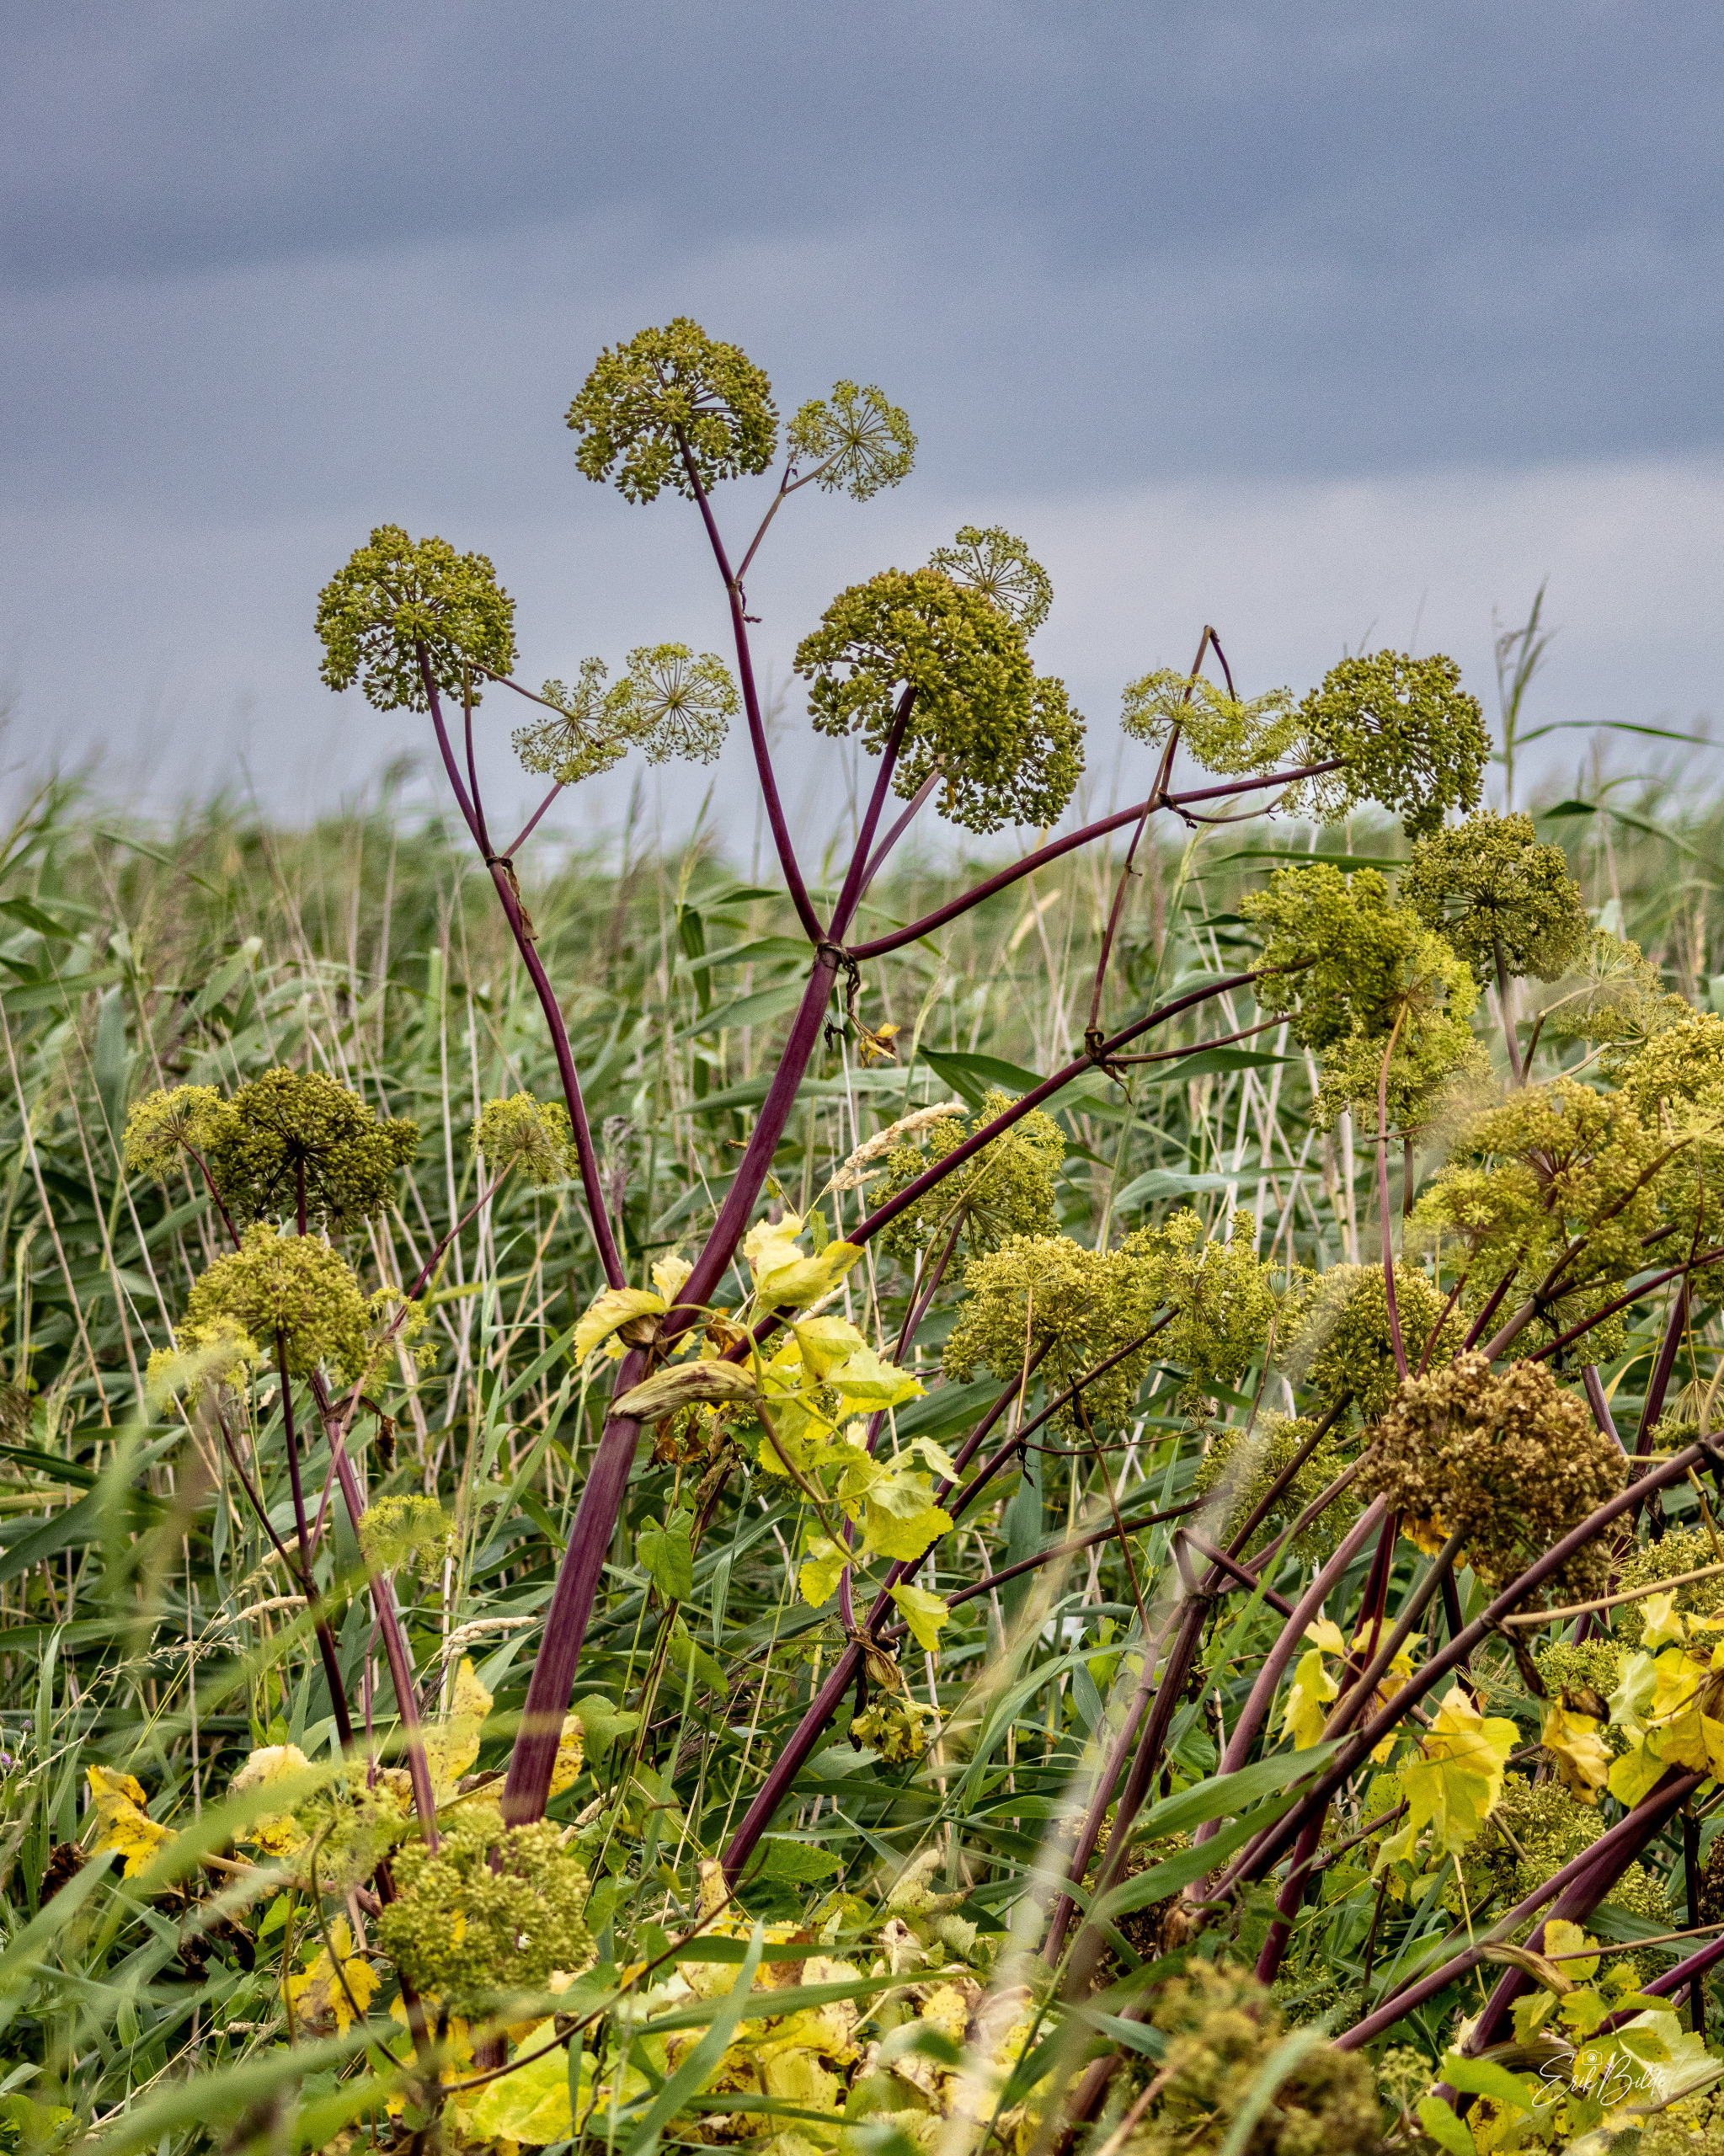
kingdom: Plantae
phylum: Tracheophyta
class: Magnoliopsida
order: Apiales
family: Apiaceae
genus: Angelica
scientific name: Angelica archangelica
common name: Kvan
